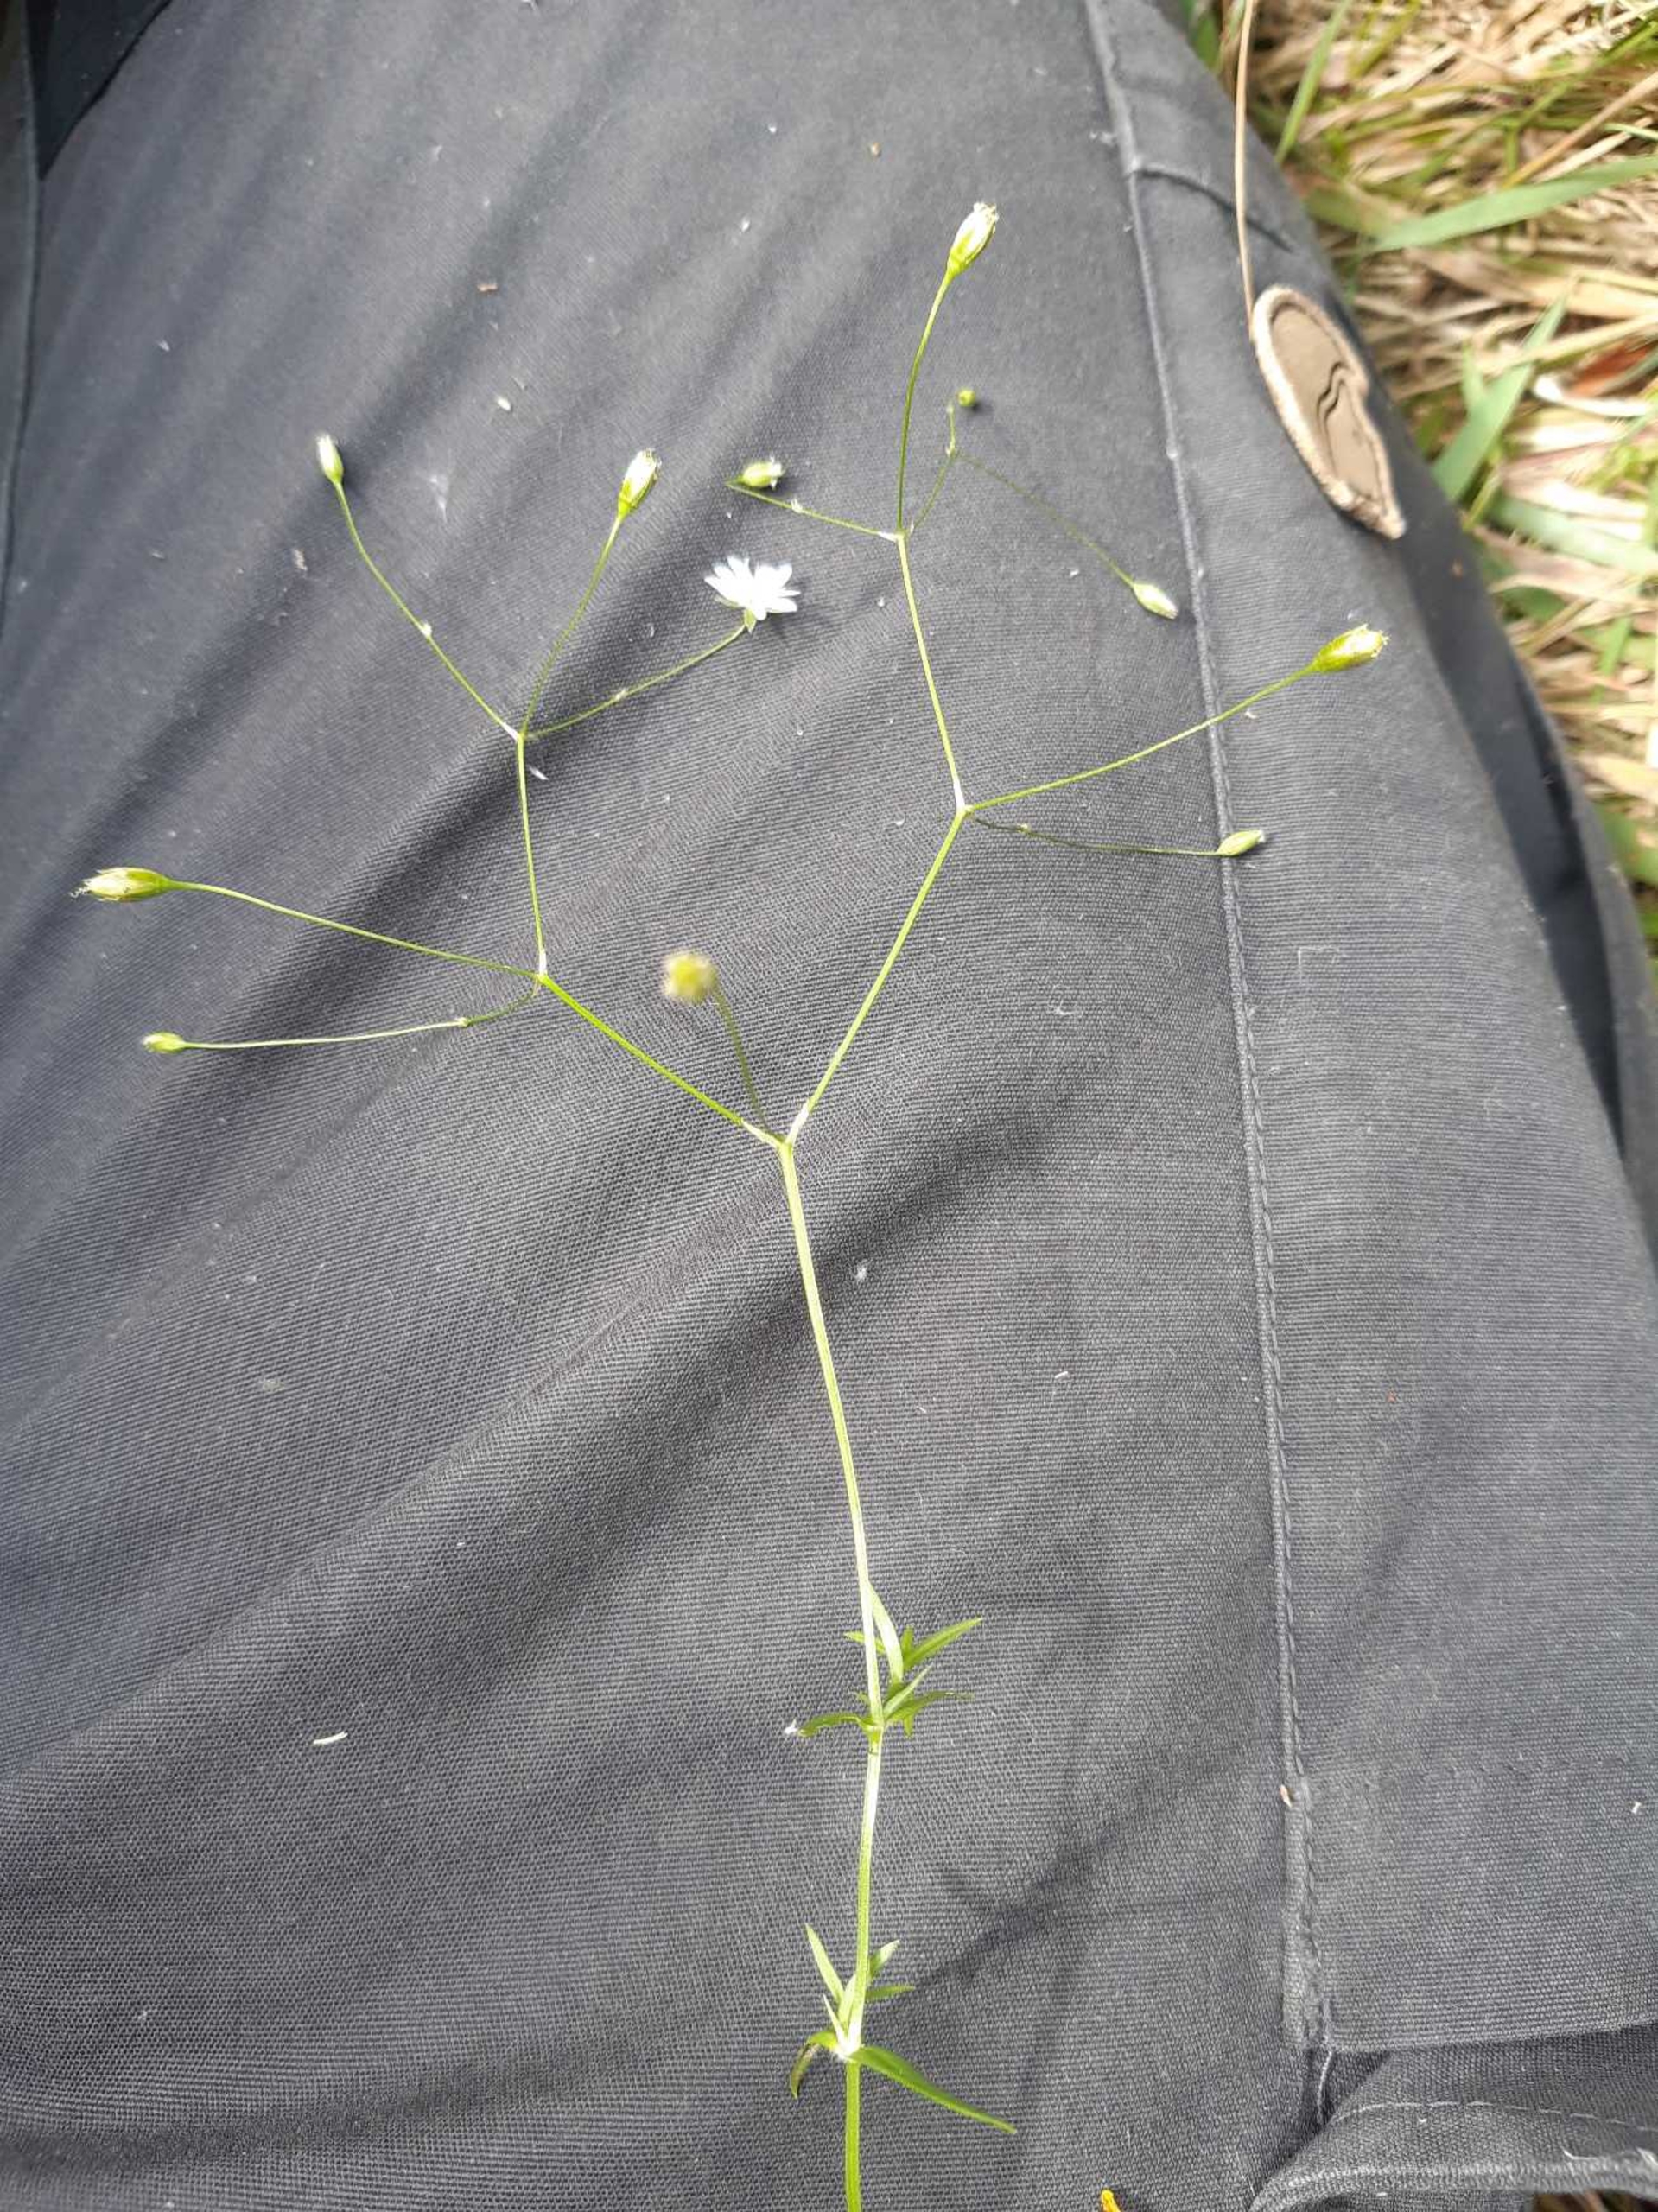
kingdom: Plantae
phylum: Tracheophyta
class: Magnoliopsida
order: Caryophyllales
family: Caryophyllaceae
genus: Stellaria
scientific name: Stellaria graminea
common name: Græsbladet fladstjerne
